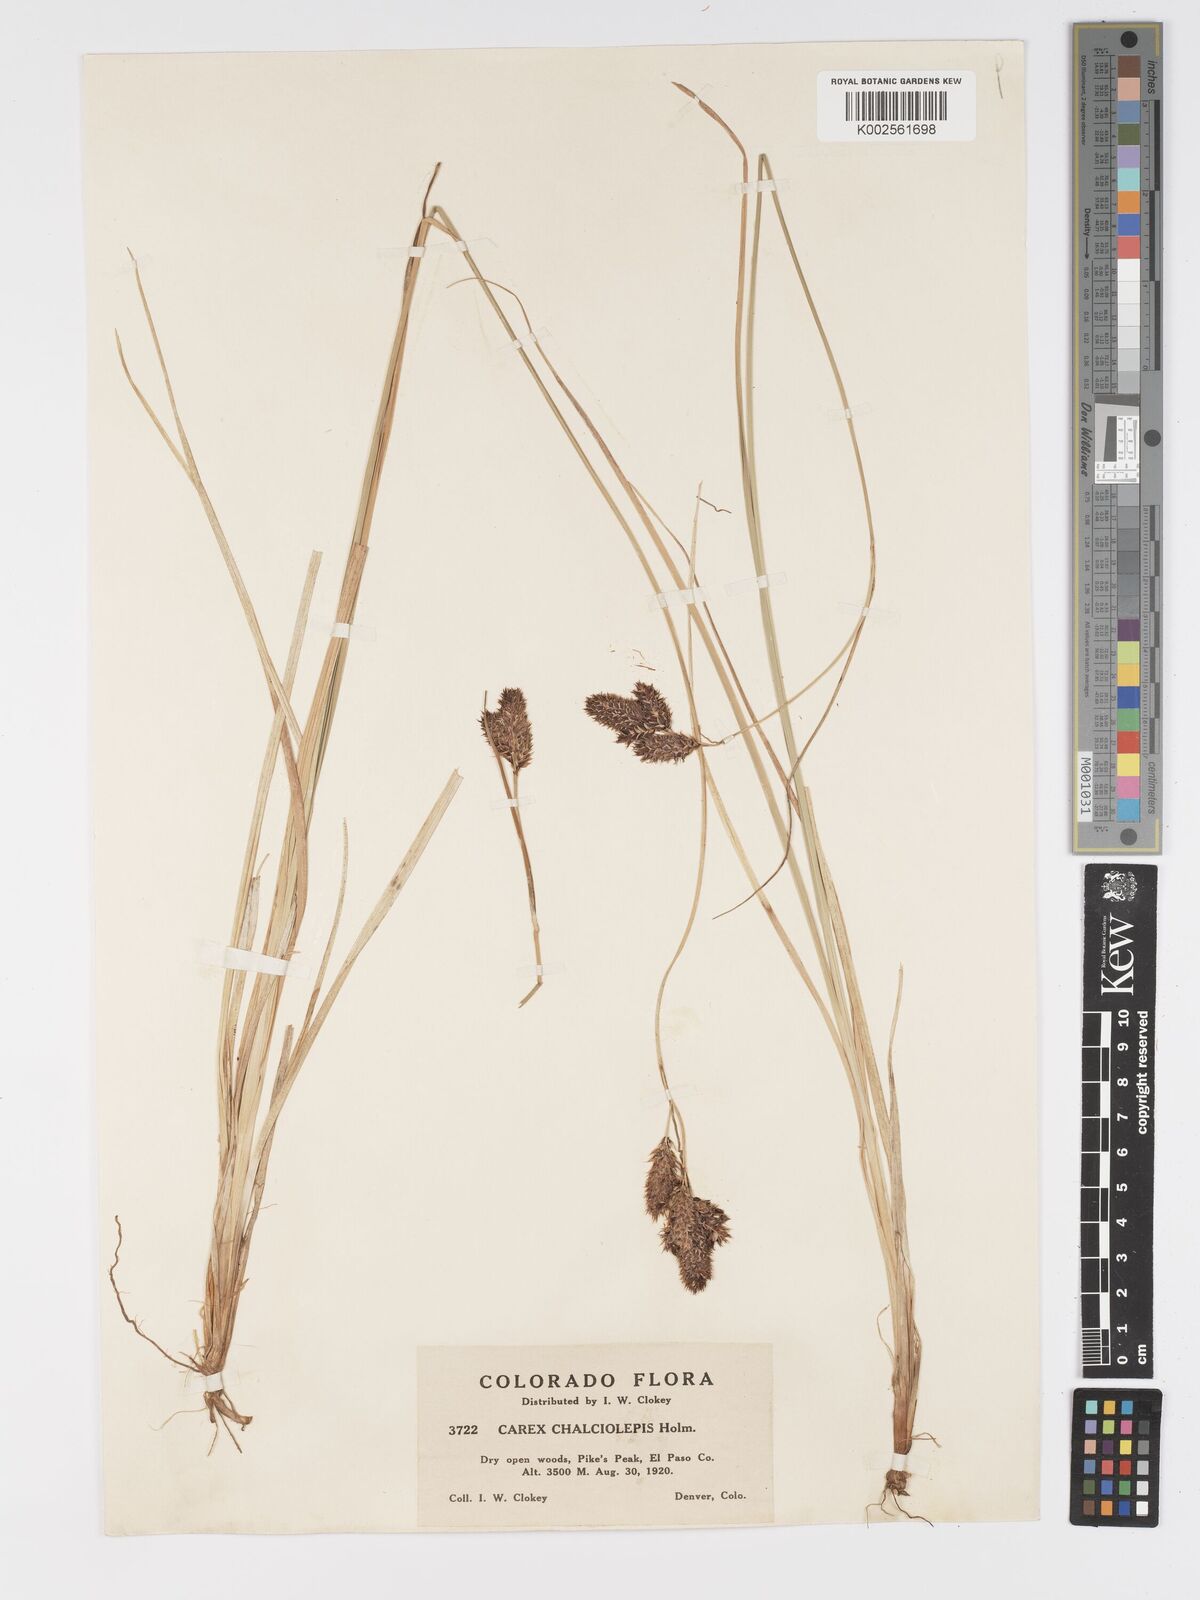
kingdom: Plantae
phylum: Tracheophyta
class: Liliopsida
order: Poales
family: Cyperaceae
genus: Carex
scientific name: Carex chalciolepis
